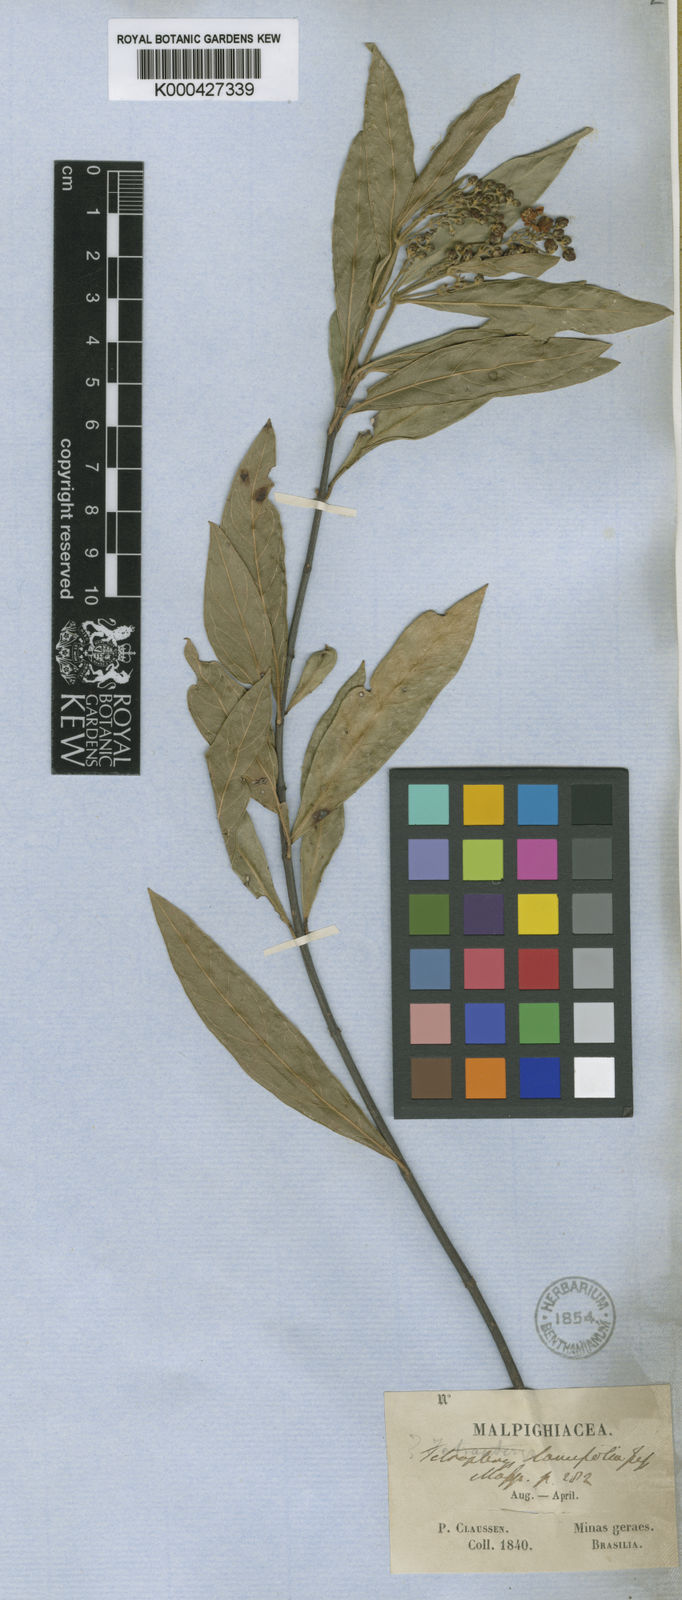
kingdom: Plantae
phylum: Tracheophyta
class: Magnoliopsida
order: Malpighiales
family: Malpighiaceae
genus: Niedenzuella
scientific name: Niedenzuella acutifolia
